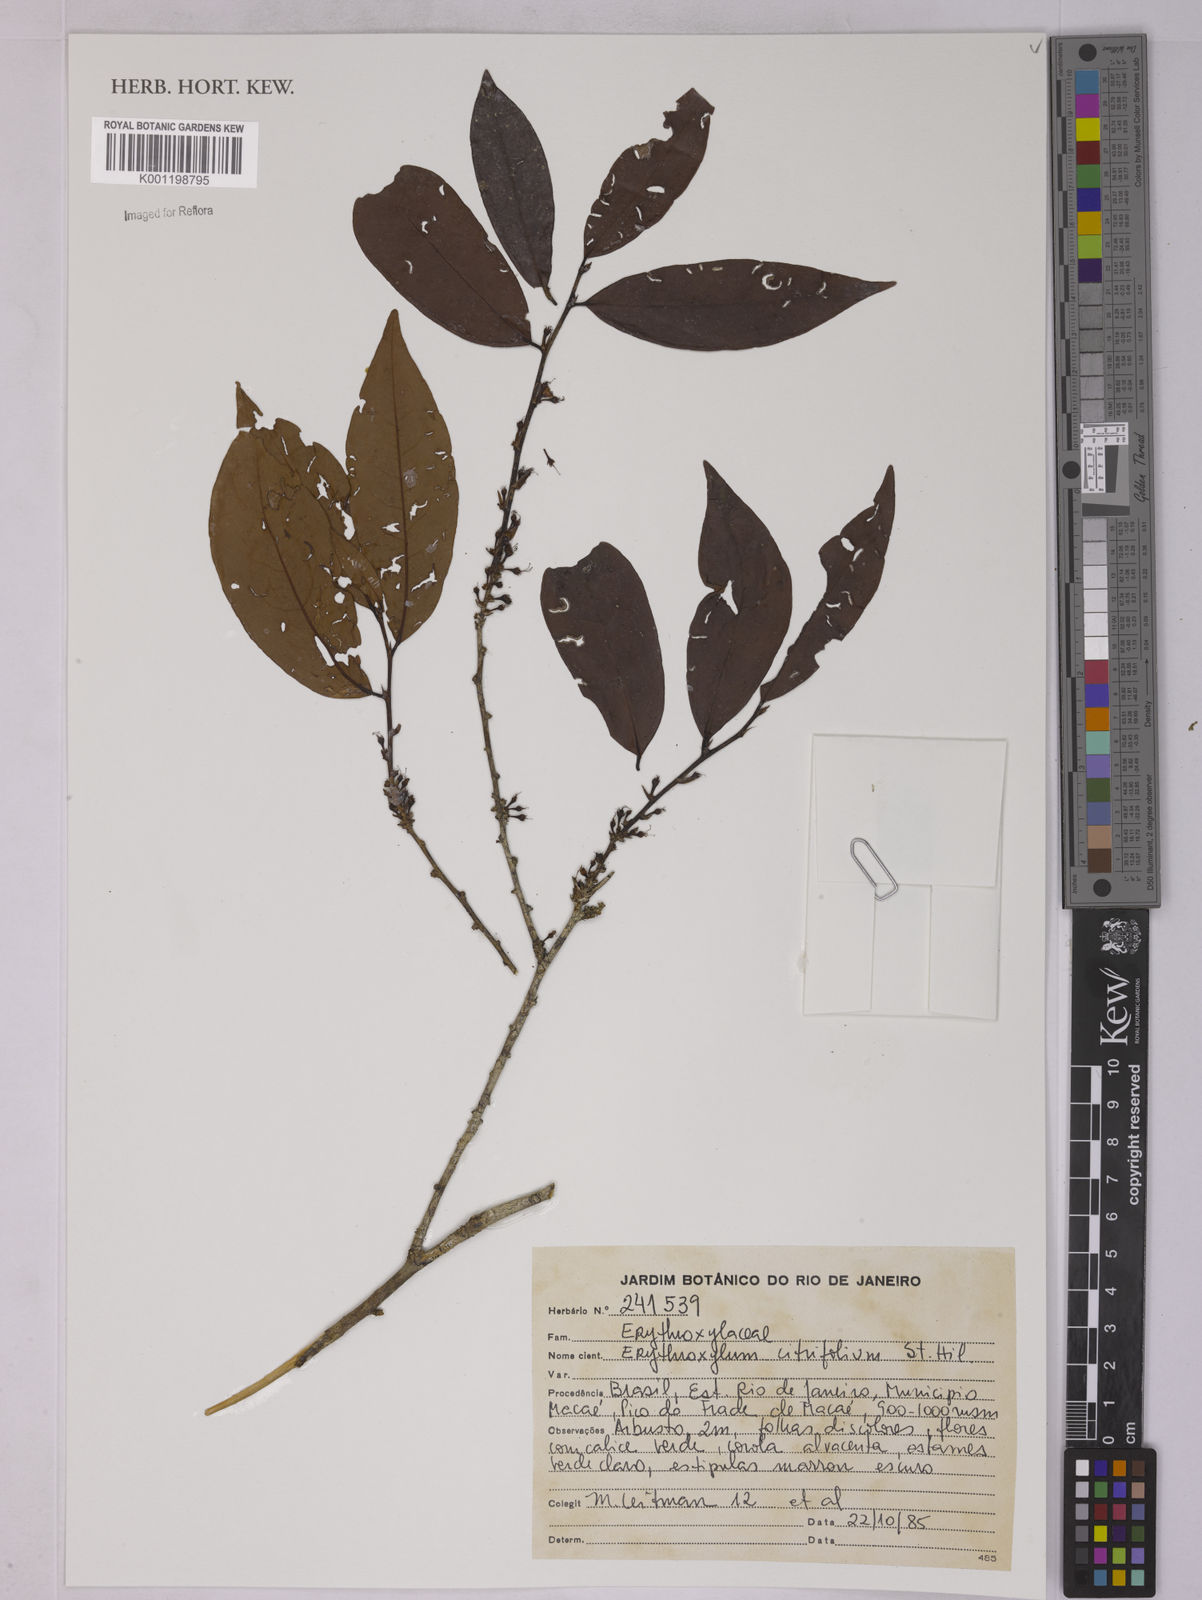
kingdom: Plantae
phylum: Tracheophyta
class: Magnoliopsida
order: Malpighiales
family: Erythroxylaceae
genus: Erythroxylum
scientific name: Erythroxylum citrifolium
